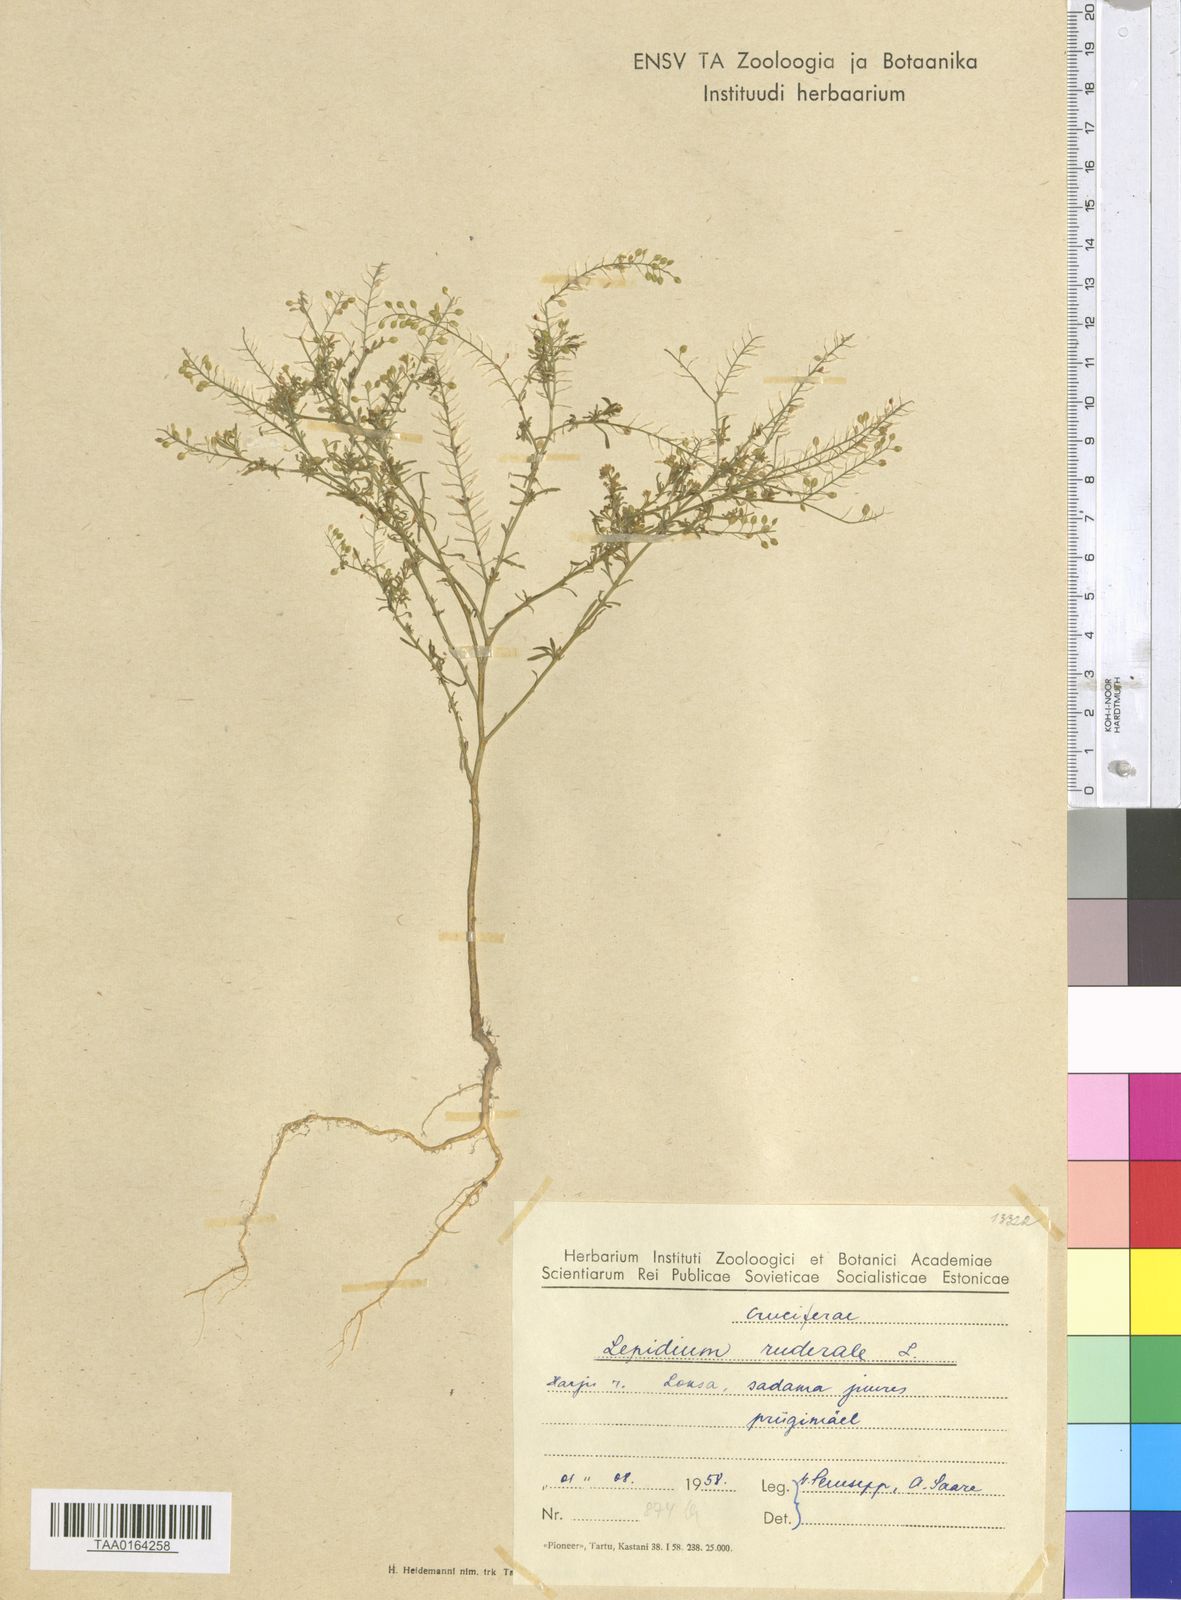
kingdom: Plantae
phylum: Tracheophyta
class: Magnoliopsida
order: Brassicales
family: Brassicaceae
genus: Lepidium
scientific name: Lepidium ruderale
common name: Narrow-leaved pepperwort
